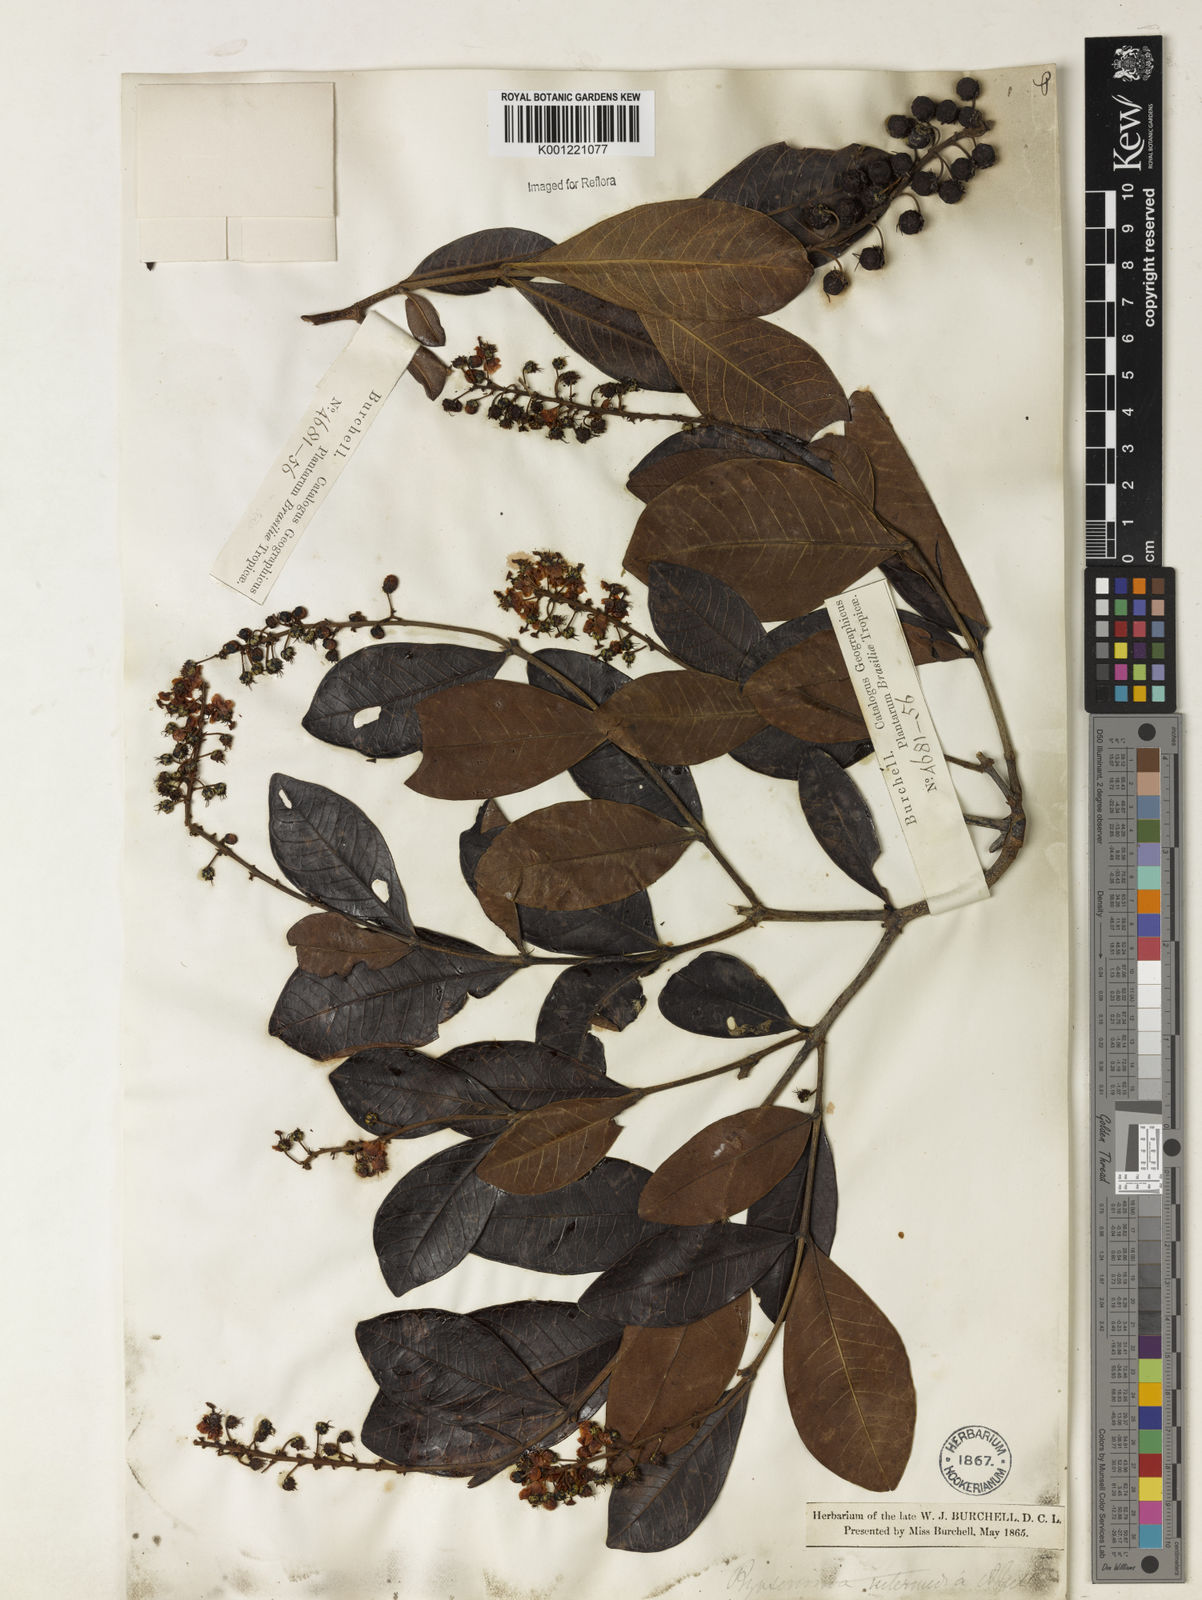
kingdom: Plantae
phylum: Tracheophyta
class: Magnoliopsida
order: Malpighiales
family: Malpighiaceae
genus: Byrsonima
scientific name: Byrsonima intermedia
